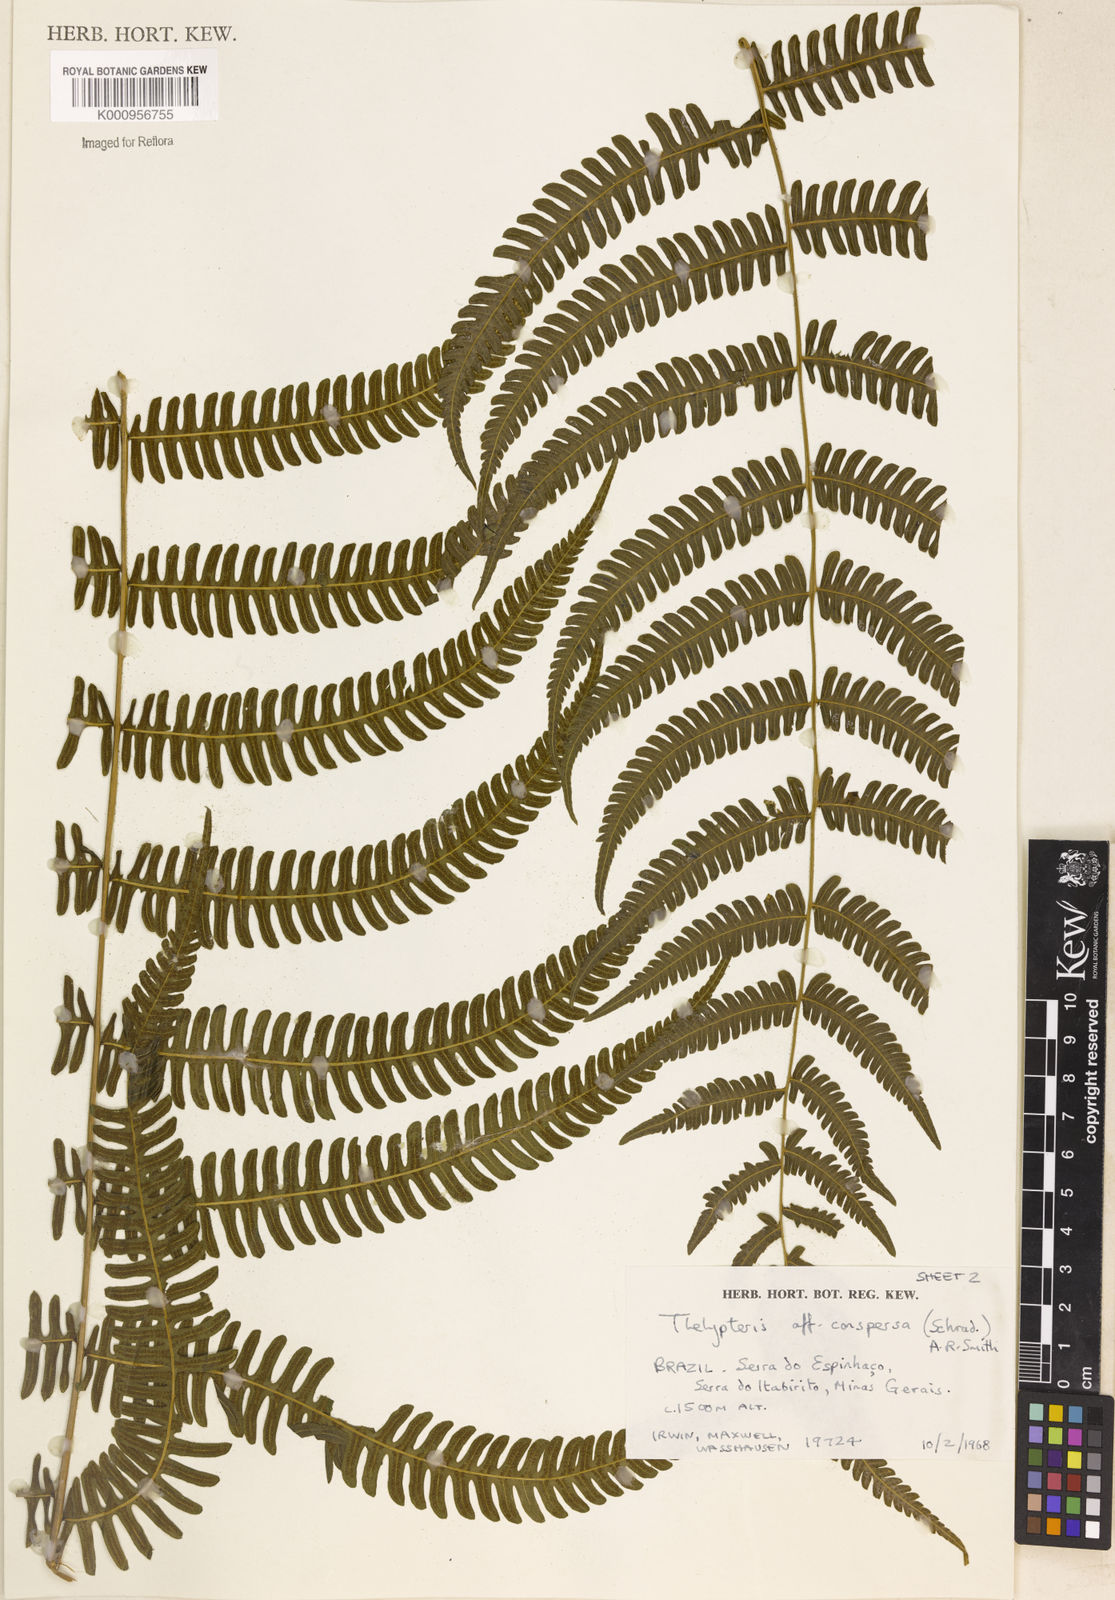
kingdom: Plantae
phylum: Tracheophyta
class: Polypodiopsida
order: Polypodiales
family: Thelypteridaceae
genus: Steiropteris
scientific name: Steiropteris hatschbachii
